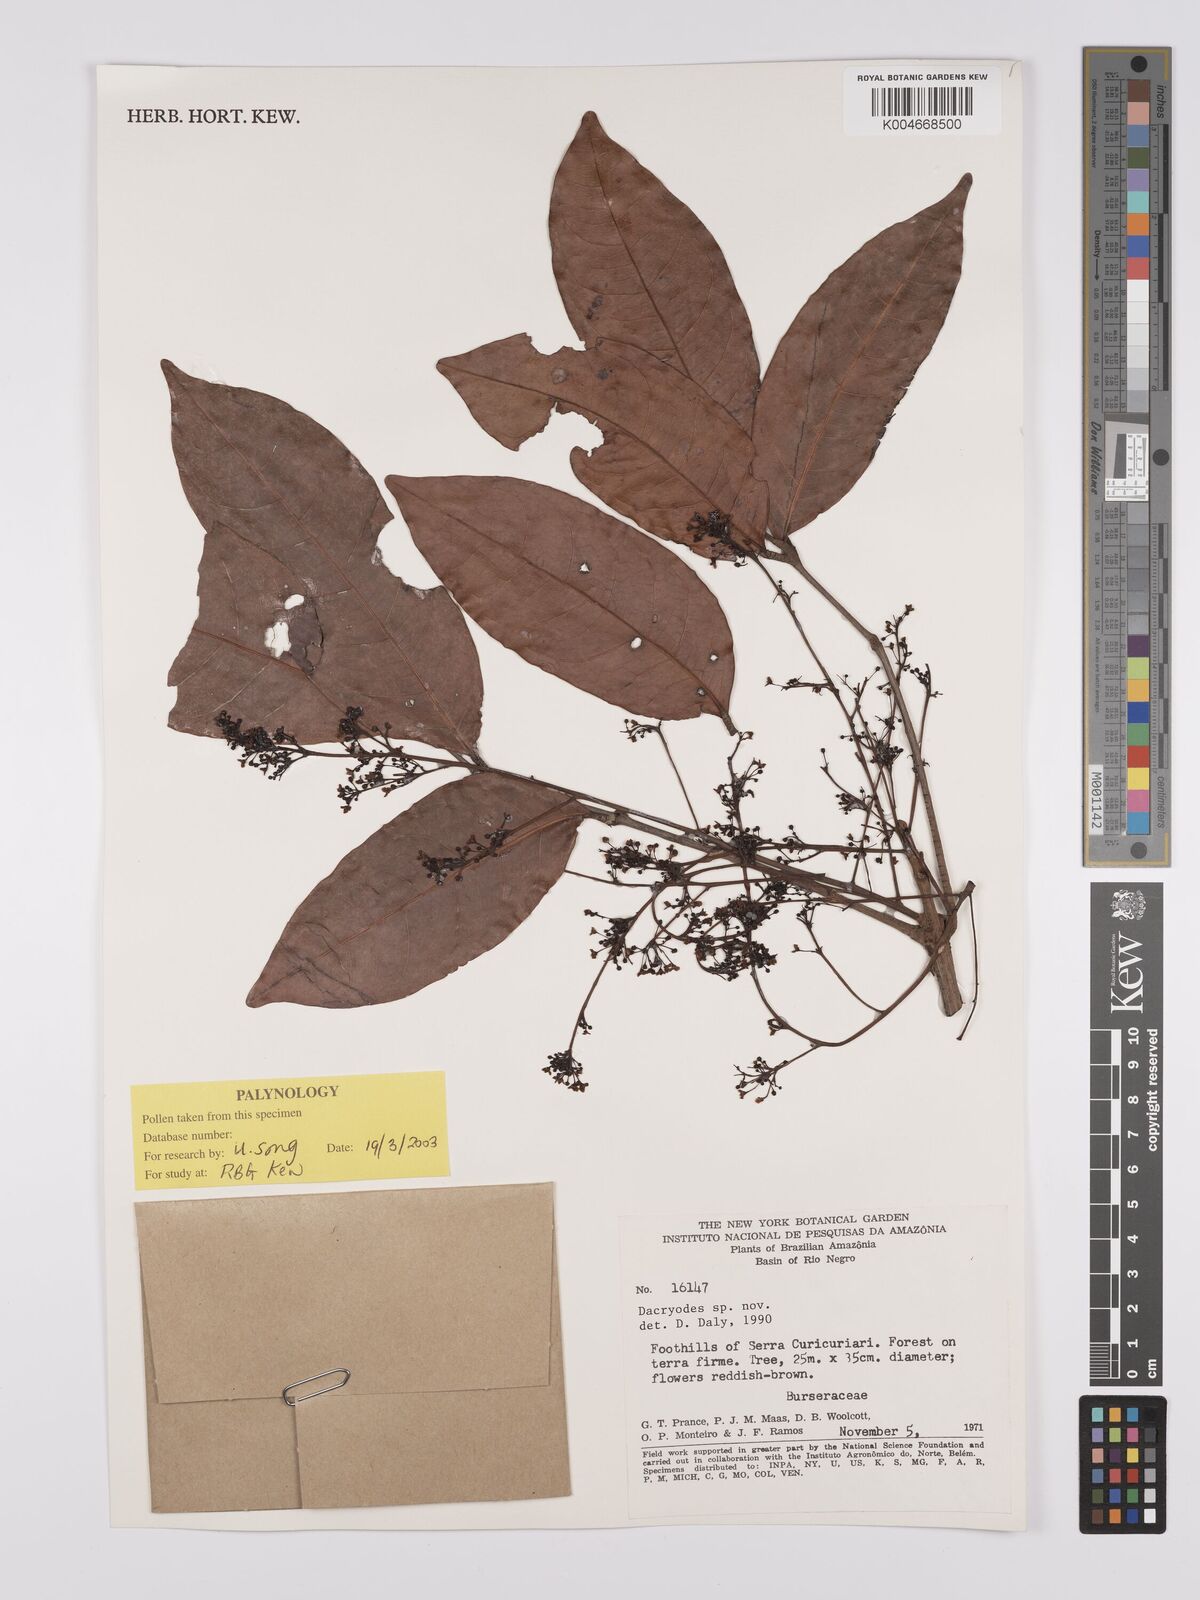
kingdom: Plantae
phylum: Tracheophyta
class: Magnoliopsida
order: Sapindales
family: Burseraceae
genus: Dacryodes
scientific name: Dacryodes
